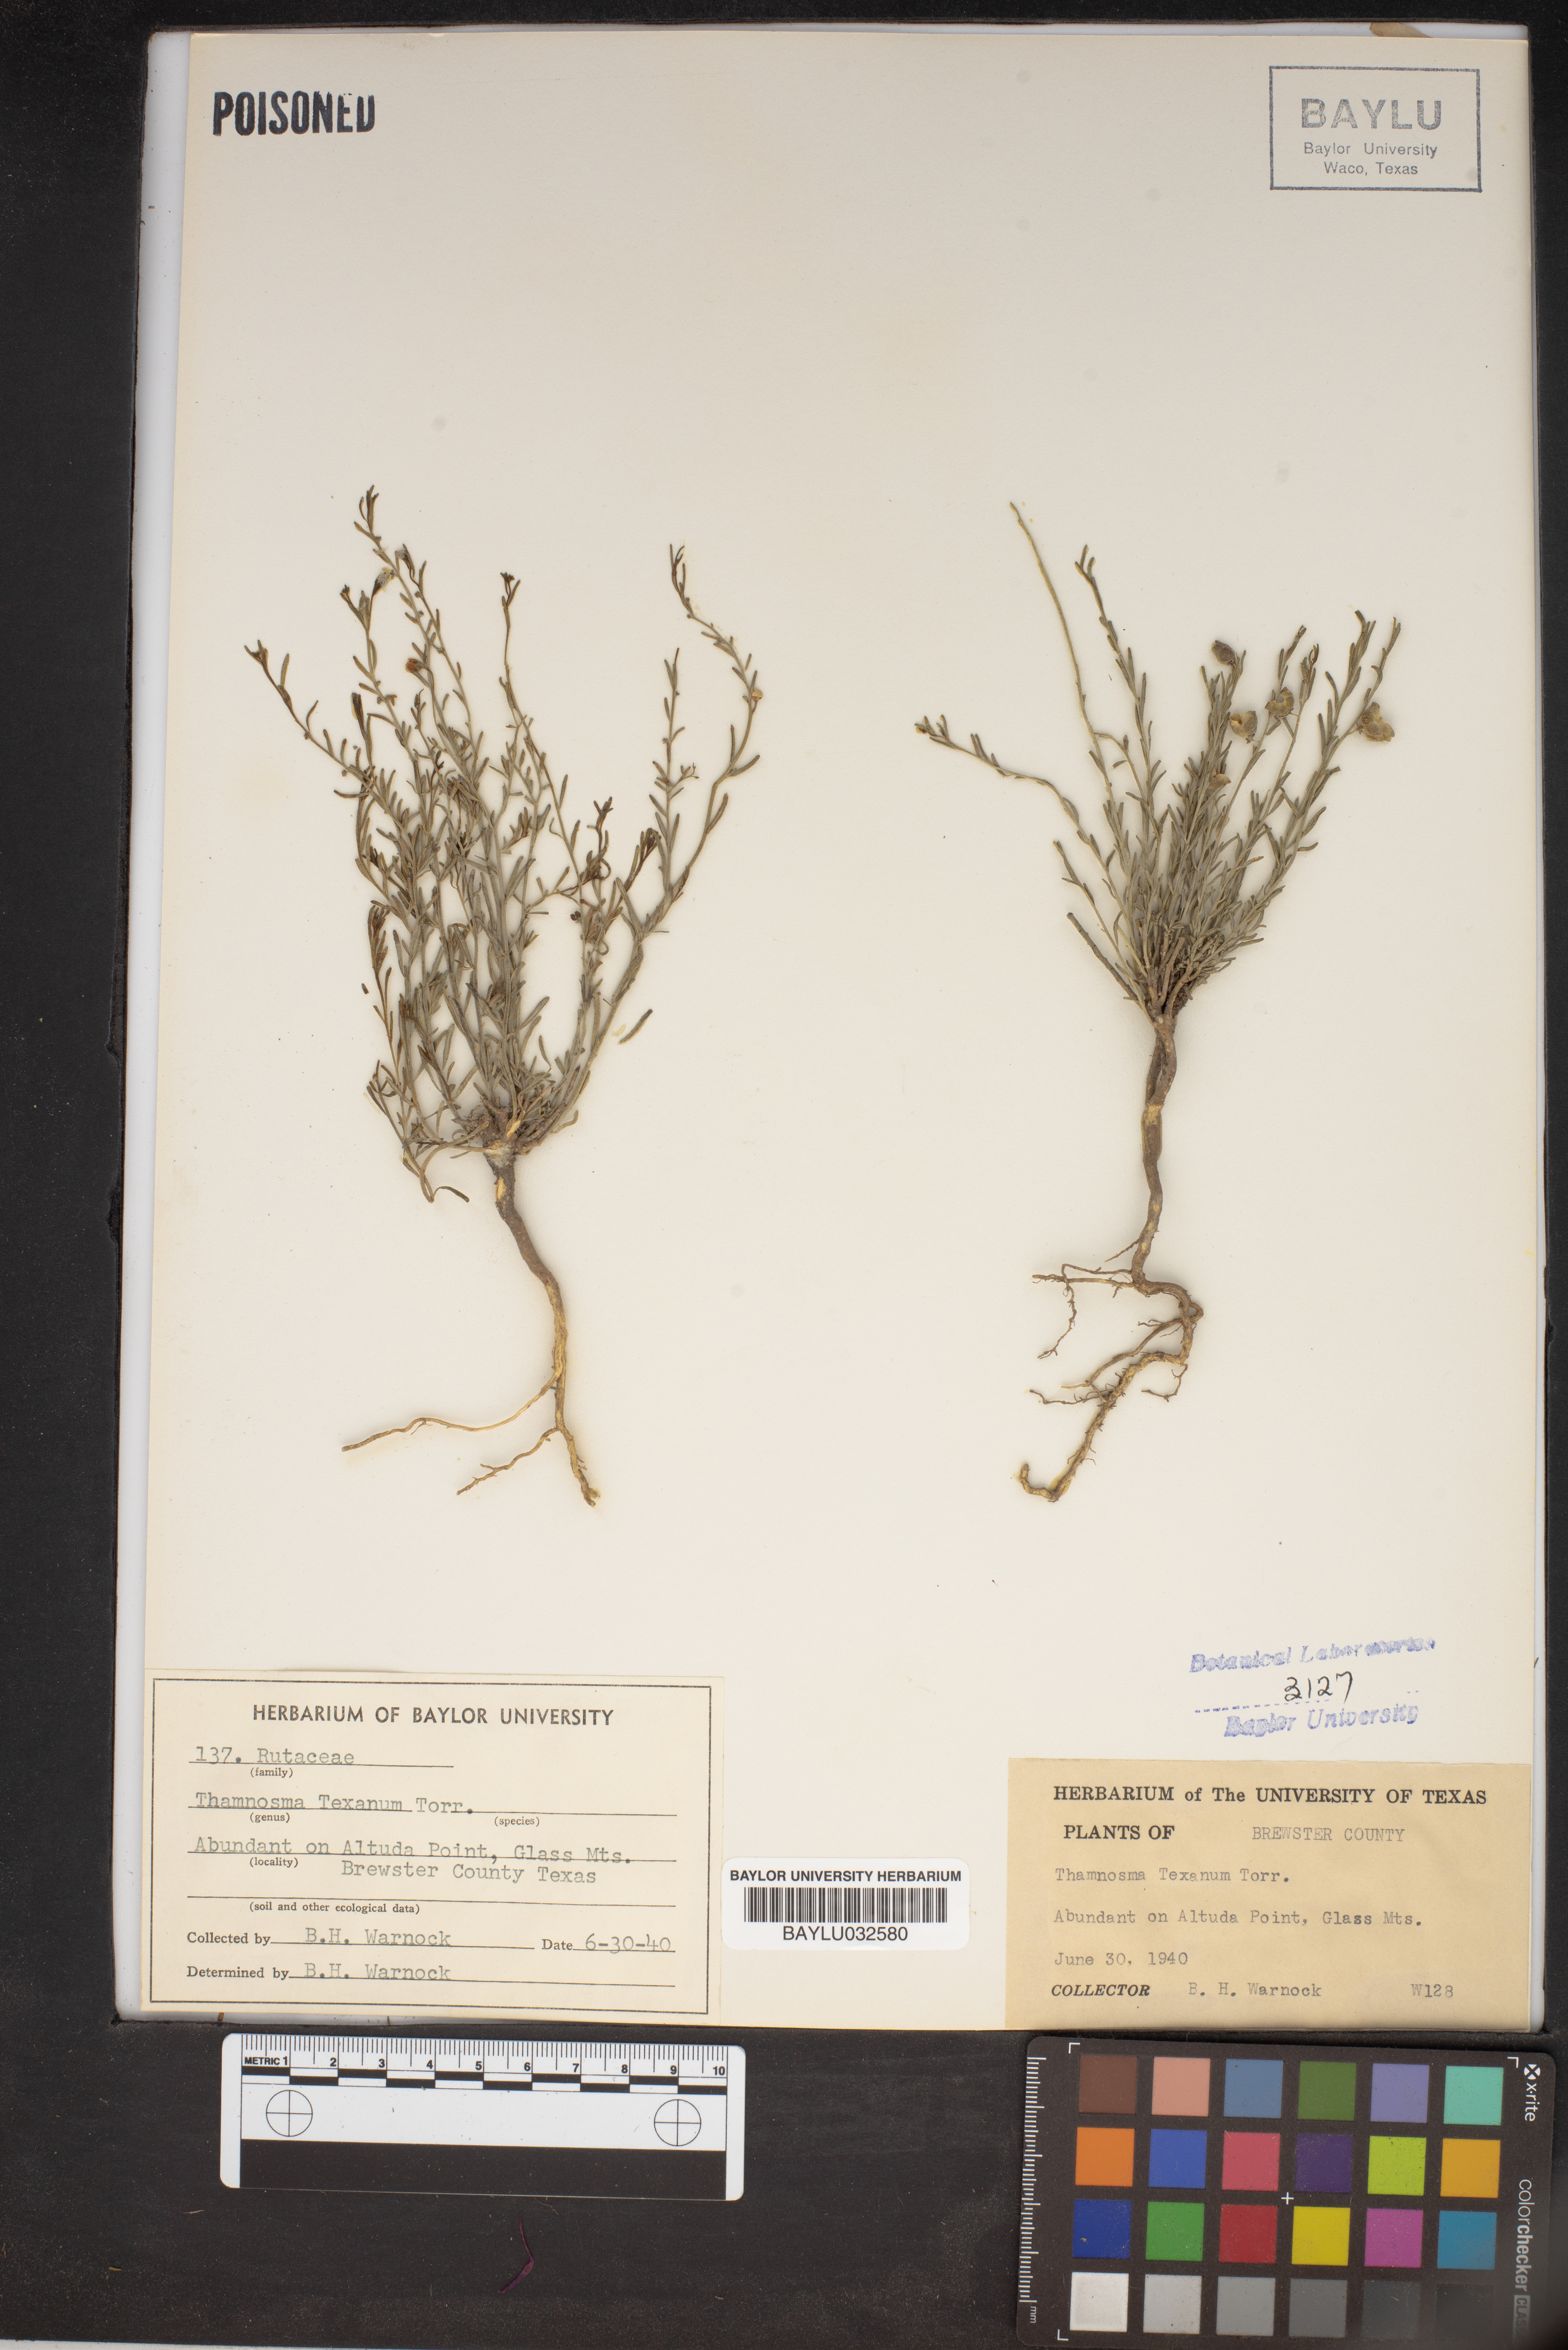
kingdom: Plantae
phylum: Tracheophyta
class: Magnoliopsida
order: Sapindales
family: Rutaceae
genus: Thamnosma
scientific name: Thamnosma texana
